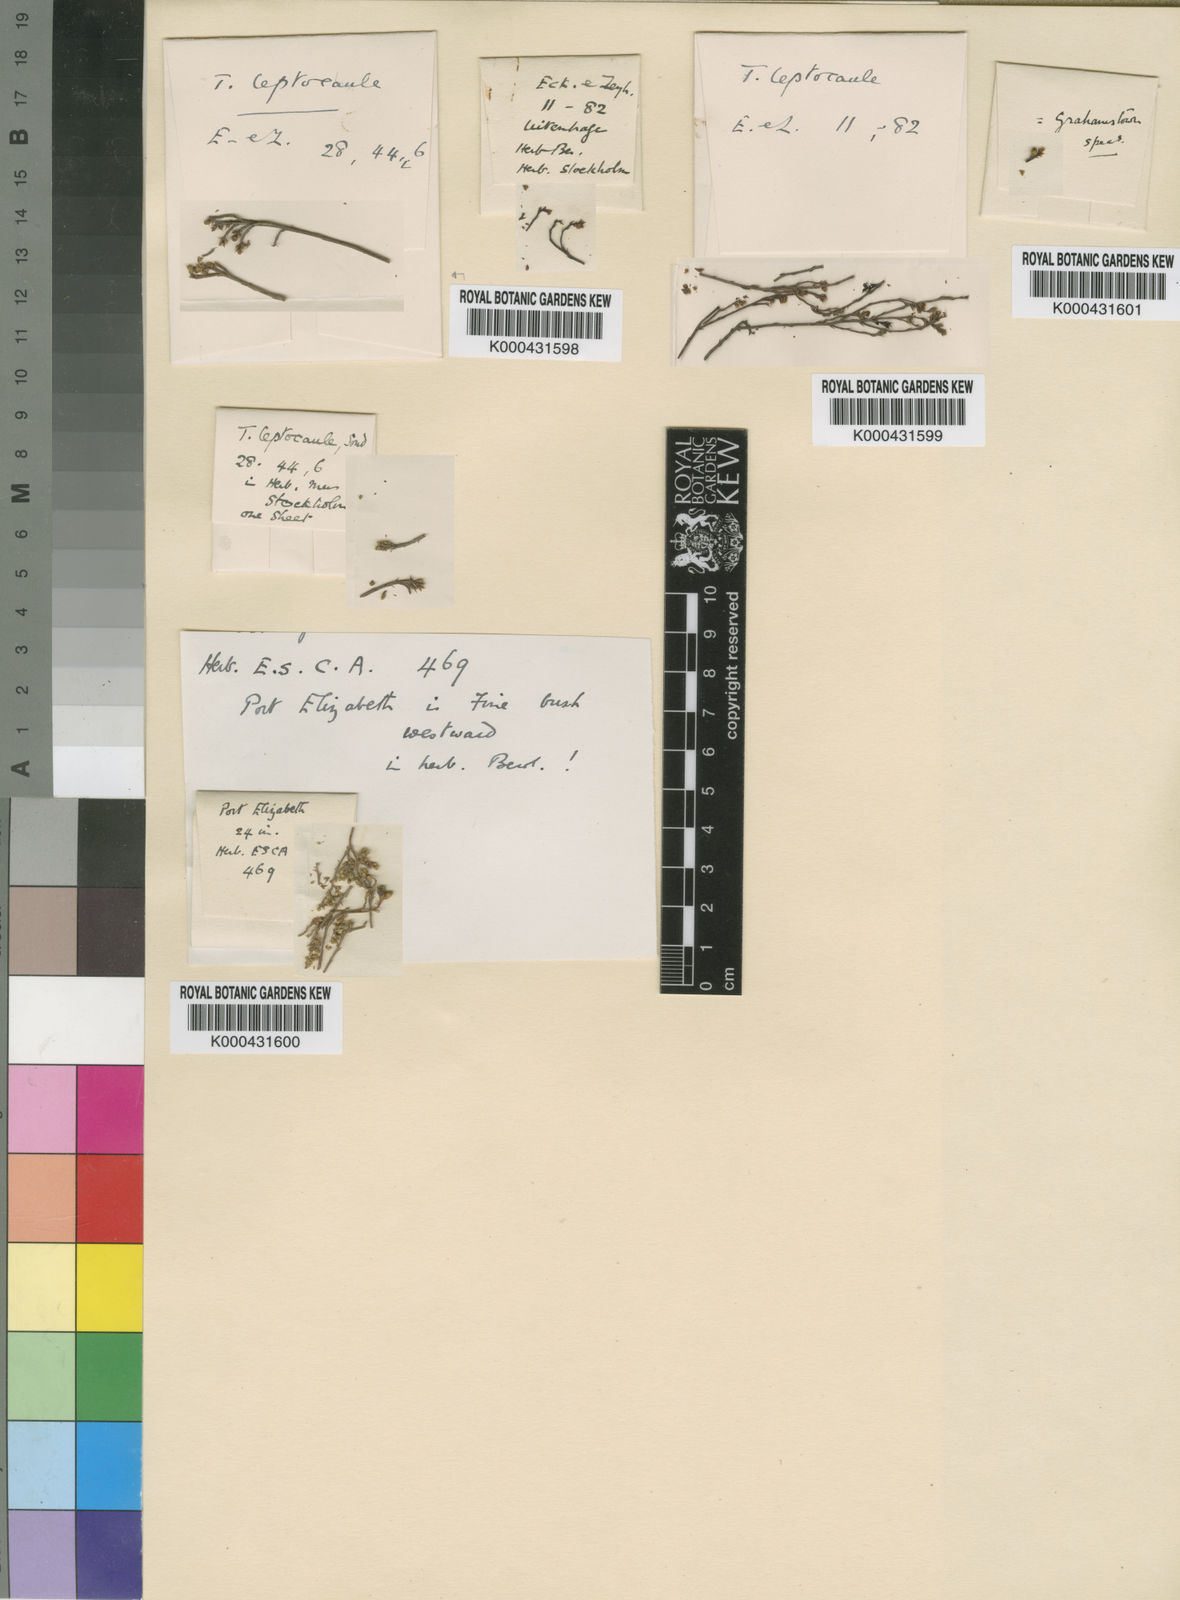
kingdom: Plantae
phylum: Tracheophyta
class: Magnoliopsida
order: Santalales
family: Thesiaceae
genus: Thesium
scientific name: Thesium leptocaule
